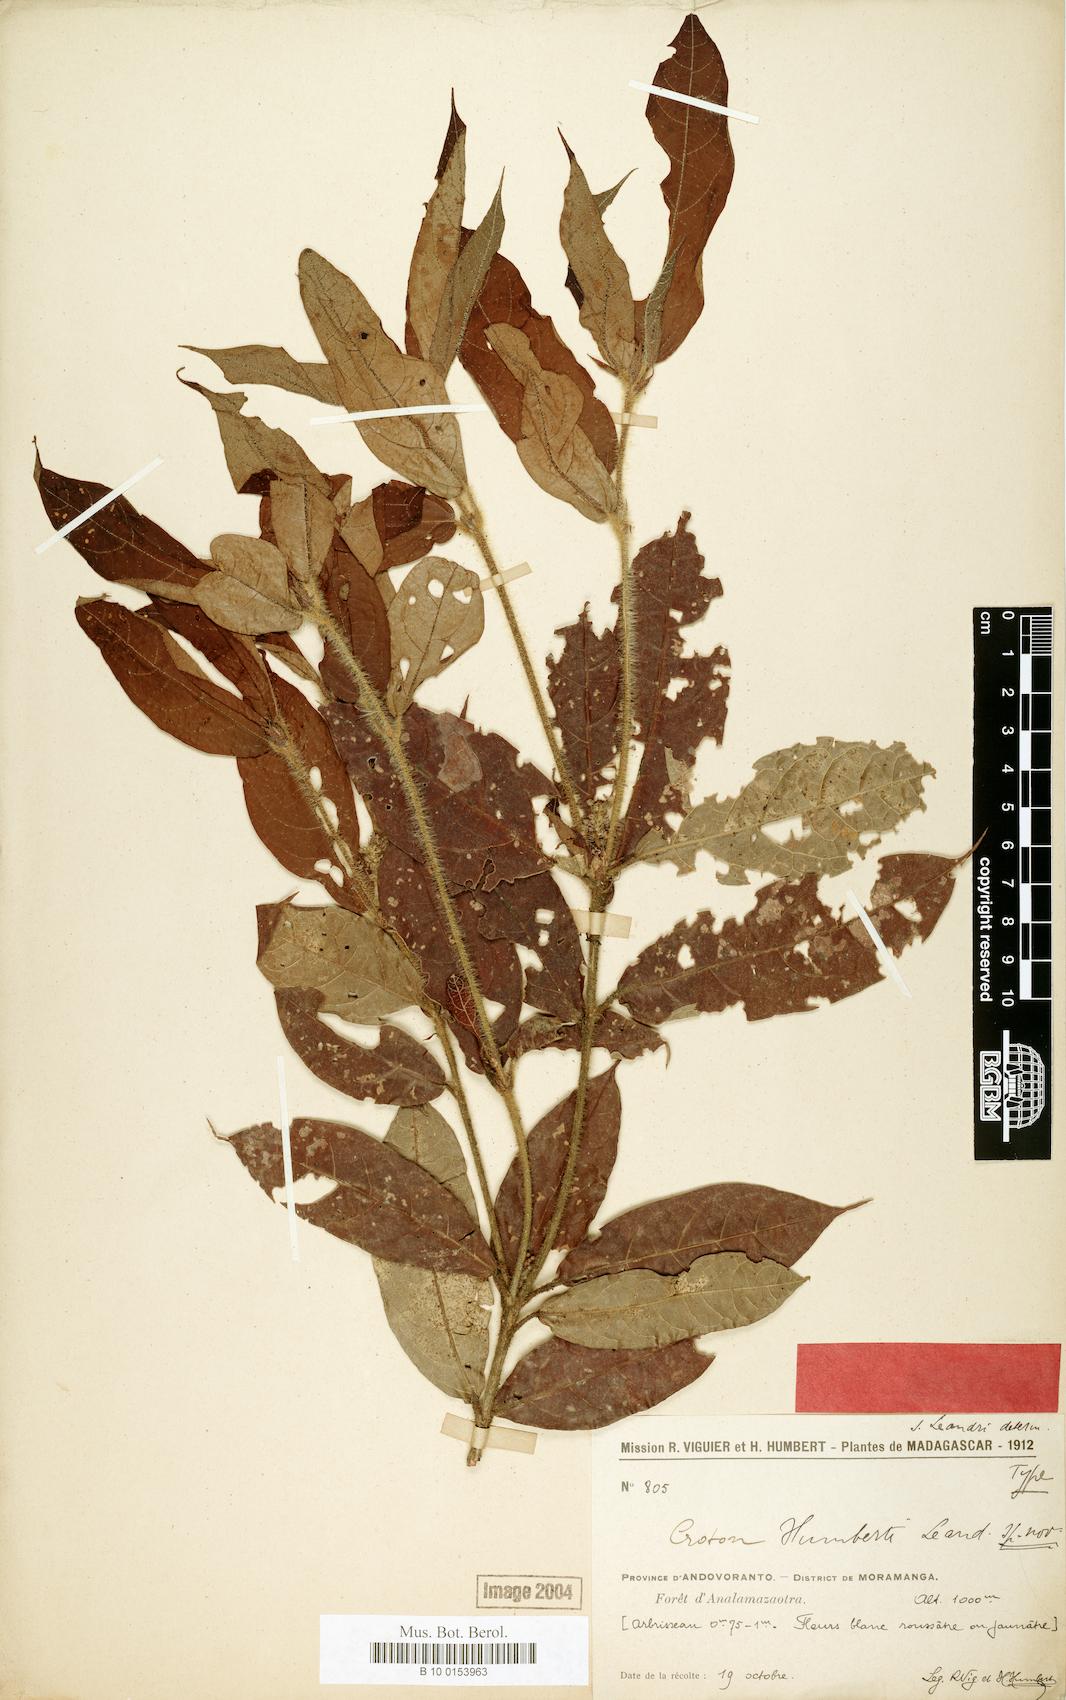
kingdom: Plantae
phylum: Tracheophyta
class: Magnoliopsida
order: Malpighiales
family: Euphorbiaceae
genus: Croton
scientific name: Croton humbertii
